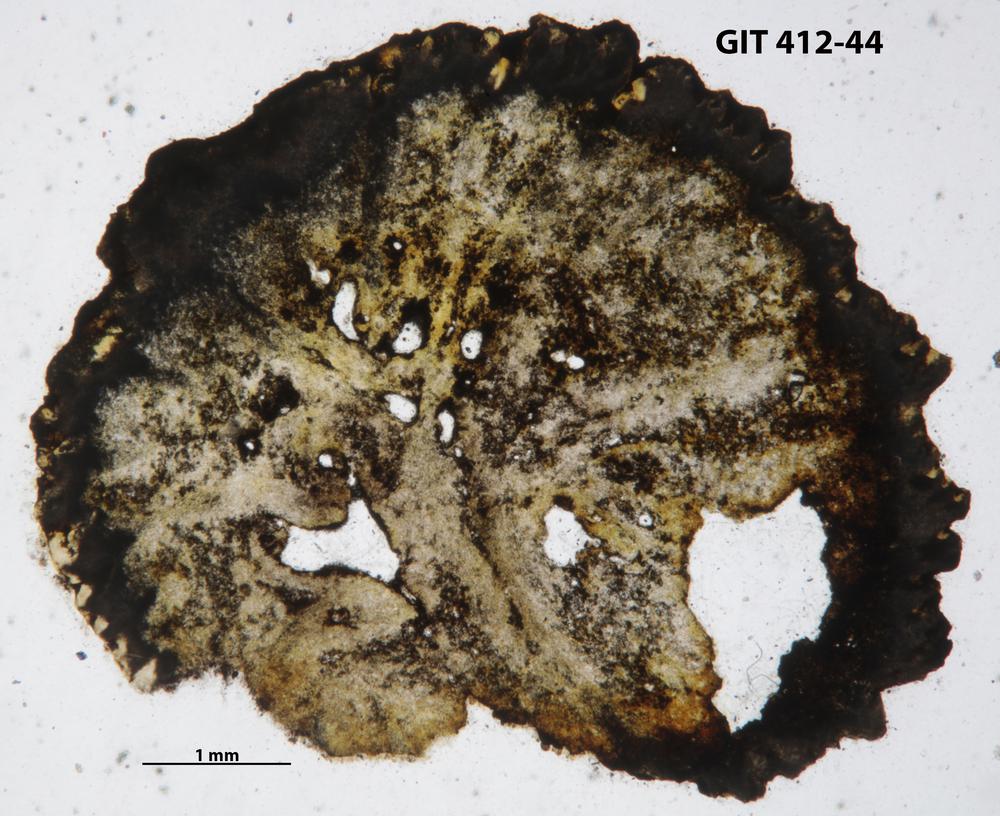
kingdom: Animalia
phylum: Cnidaria
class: Anthozoa
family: Streptelasmatidae
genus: Streptelasma
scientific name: Streptelasma
